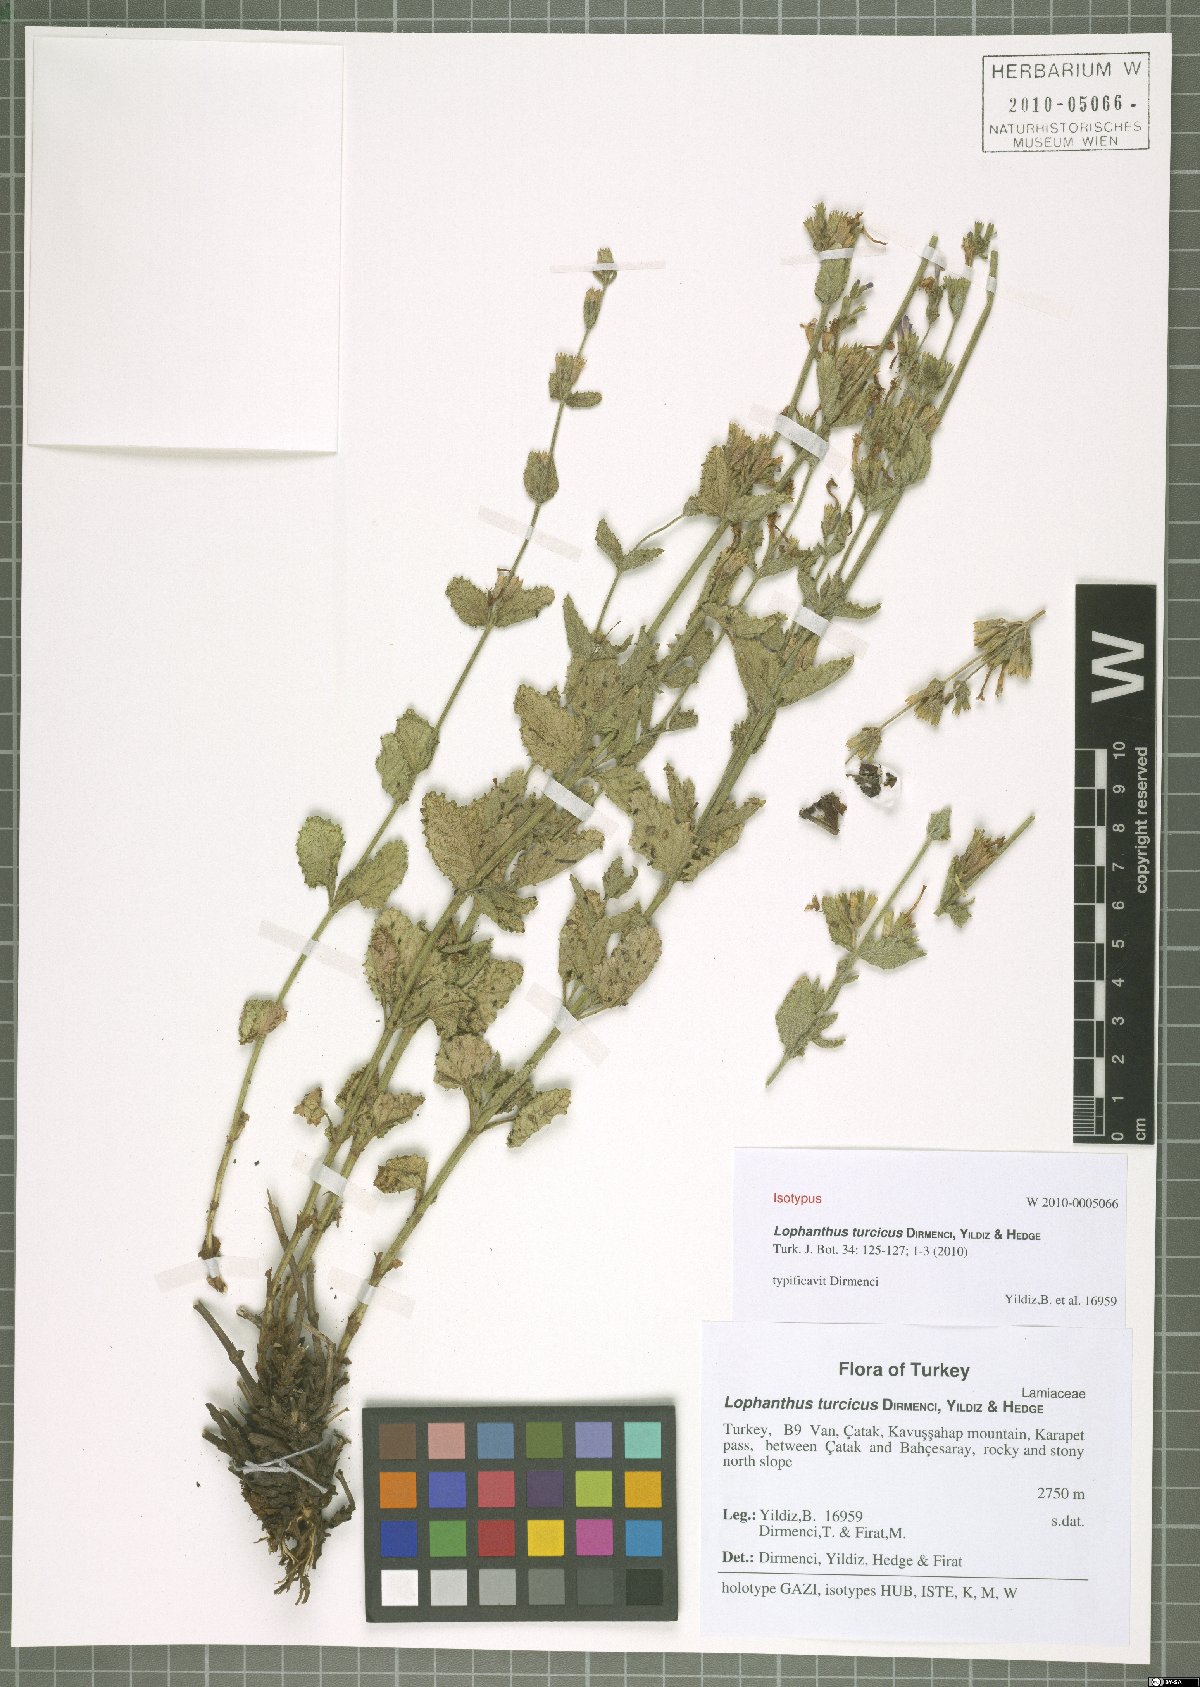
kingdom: Plantae
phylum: Tracheophyta
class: Magnoliopsida
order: Lamiales
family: Lamiaceae
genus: Nepeta
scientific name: Nepeta turcica
